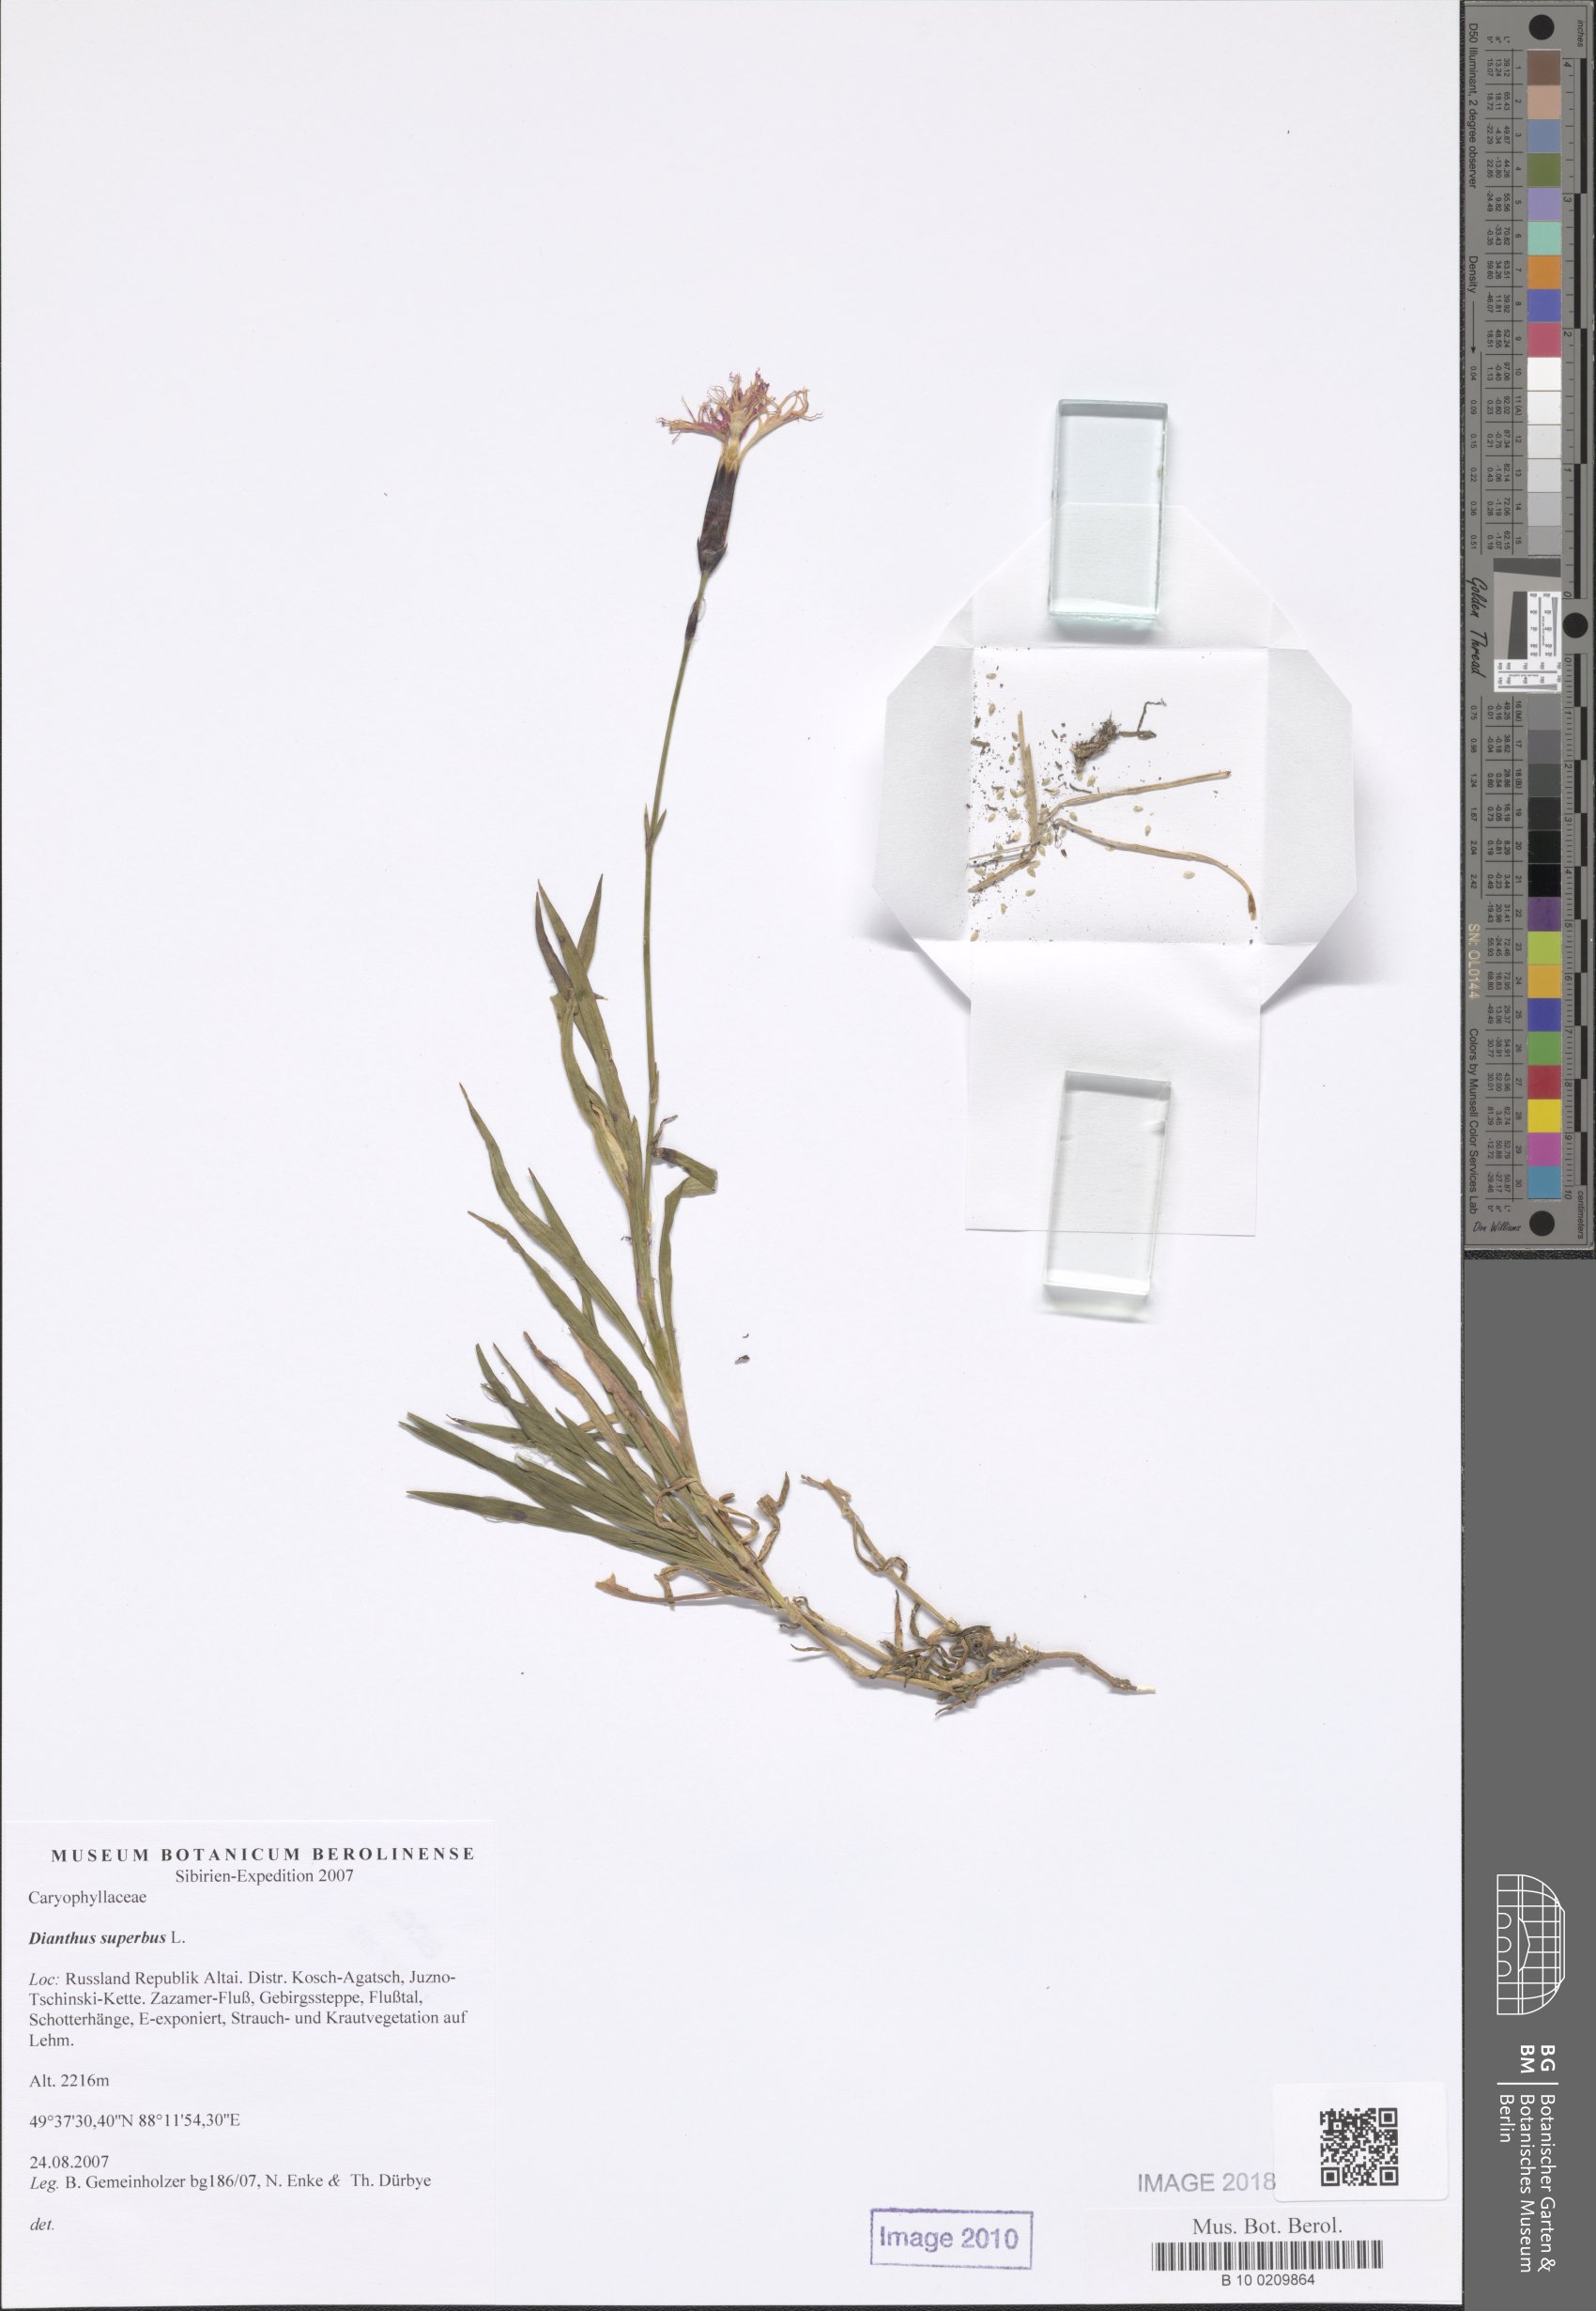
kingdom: Plantae
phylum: Tracheophyta
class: Magnoliopsida
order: Caryophyllales
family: Caryophyllaceae
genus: Dianthus
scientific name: Dianthus superbus
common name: Fringed pink
